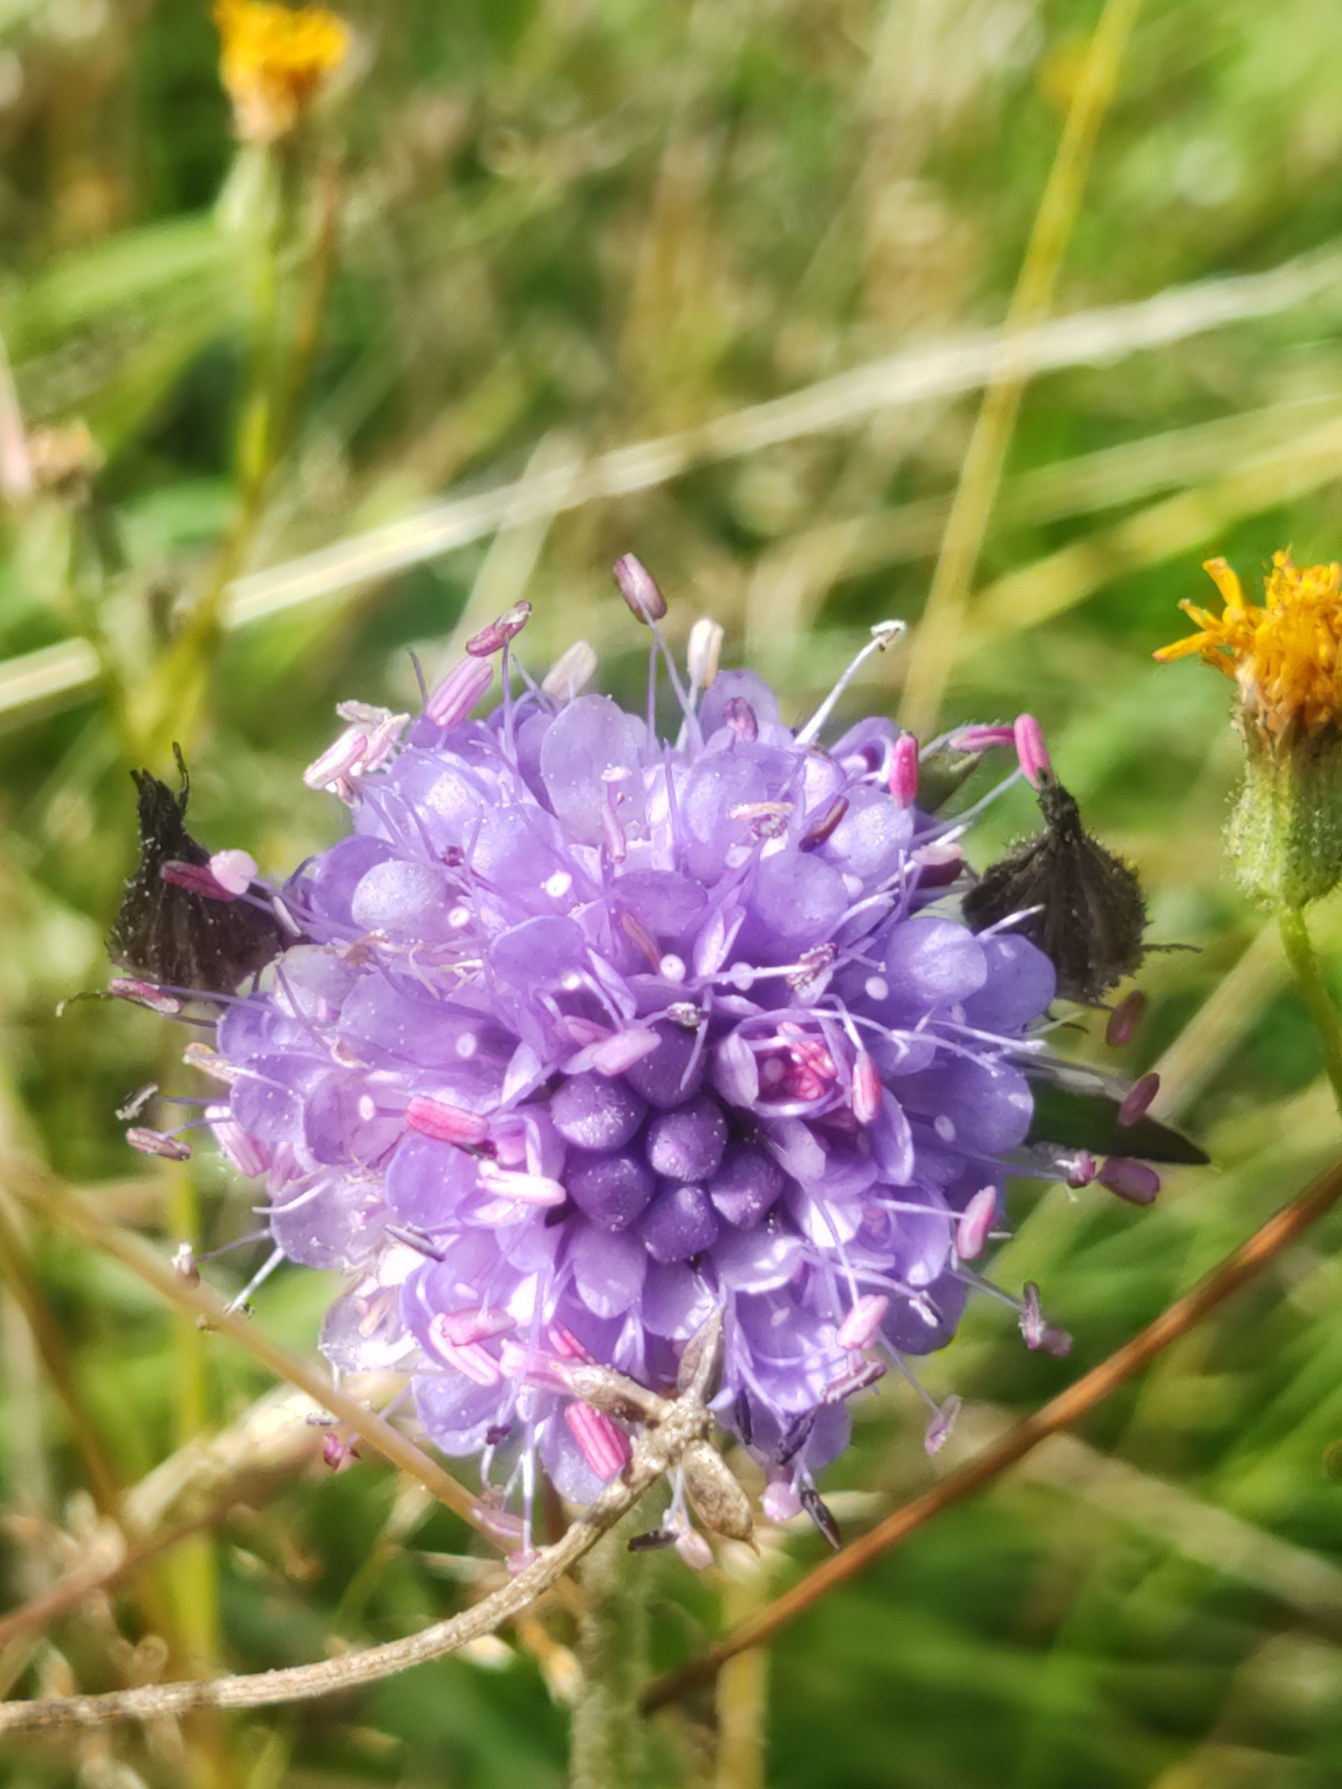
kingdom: Plantae
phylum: Tracheophyta
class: Magnoliopsida
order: Dipsacales
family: Caprifoliaceae
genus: Succisa
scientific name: Succisa pratensis
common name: Djævelsbid
